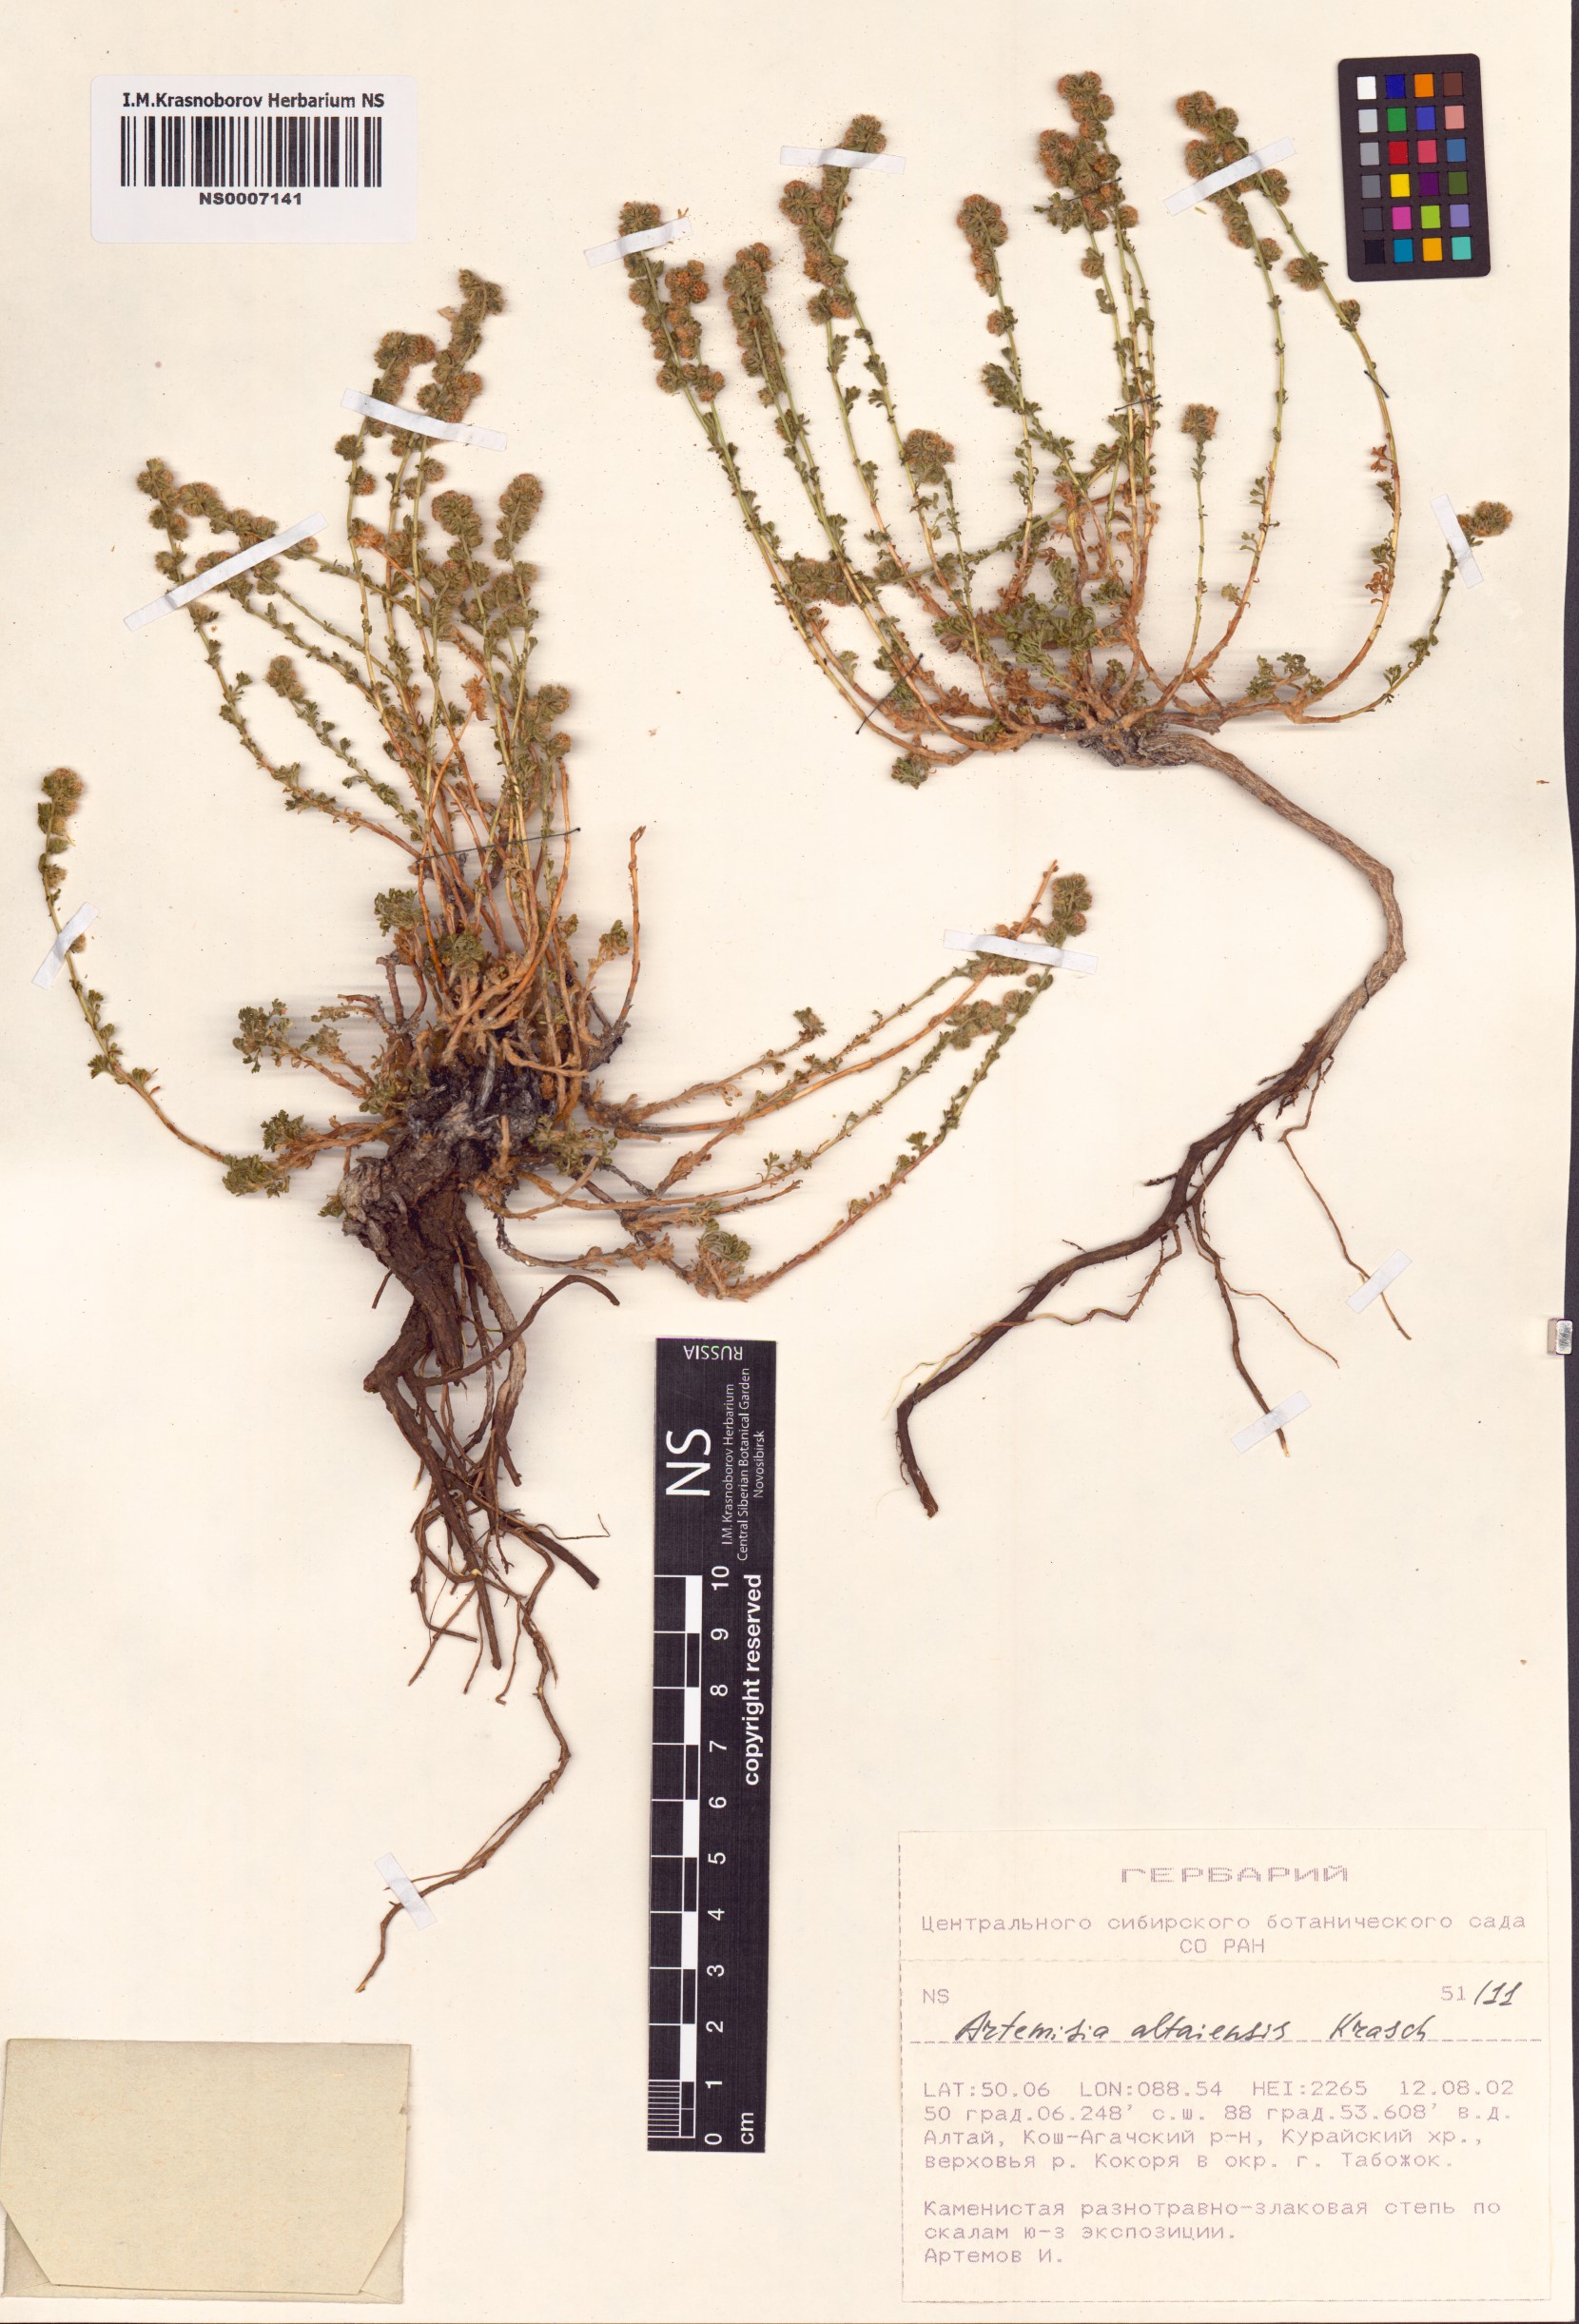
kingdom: Plantae
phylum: Tracheophyta
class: Magnoliopsida
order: Asterales
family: Asteraceae
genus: Artemisia
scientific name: Artemisia obtusiloba
